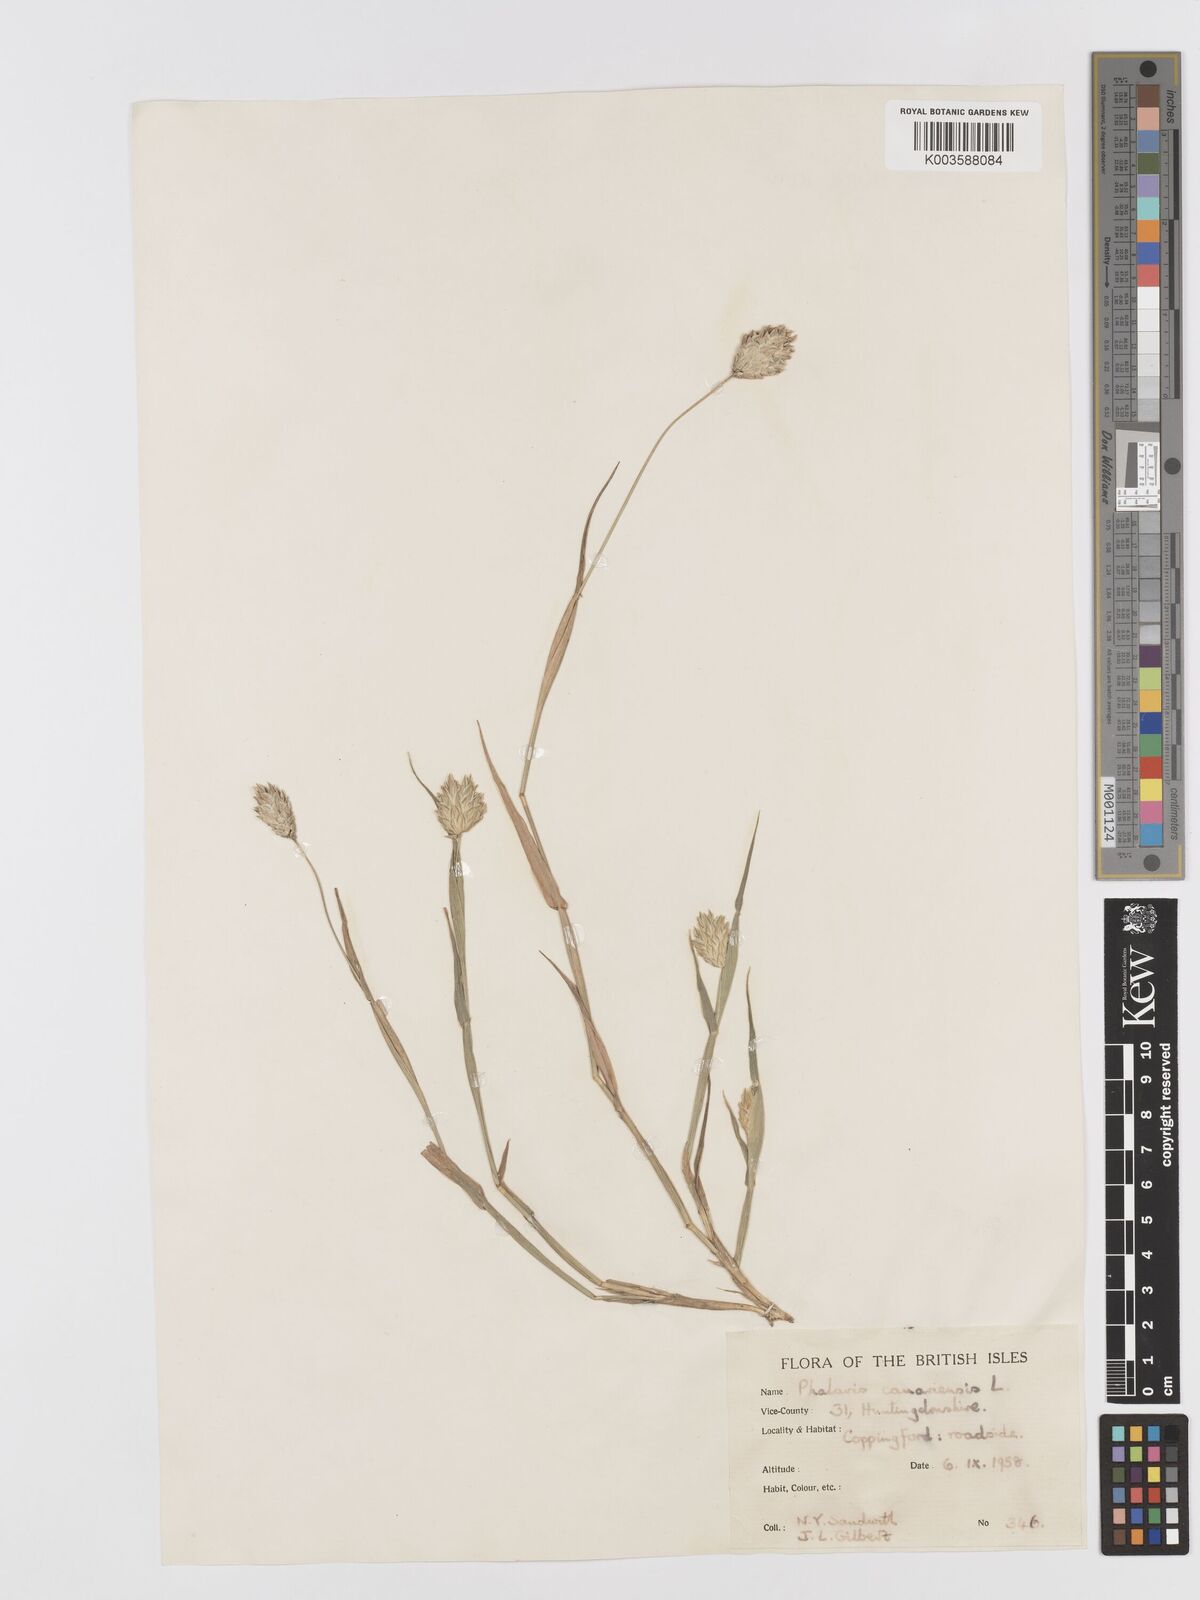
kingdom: Plantae
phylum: Tracheophyta
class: Liliopsida
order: Poales
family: Poaceae
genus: Phalaris
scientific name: Phalaris canariensis
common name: Annual canarygrass
